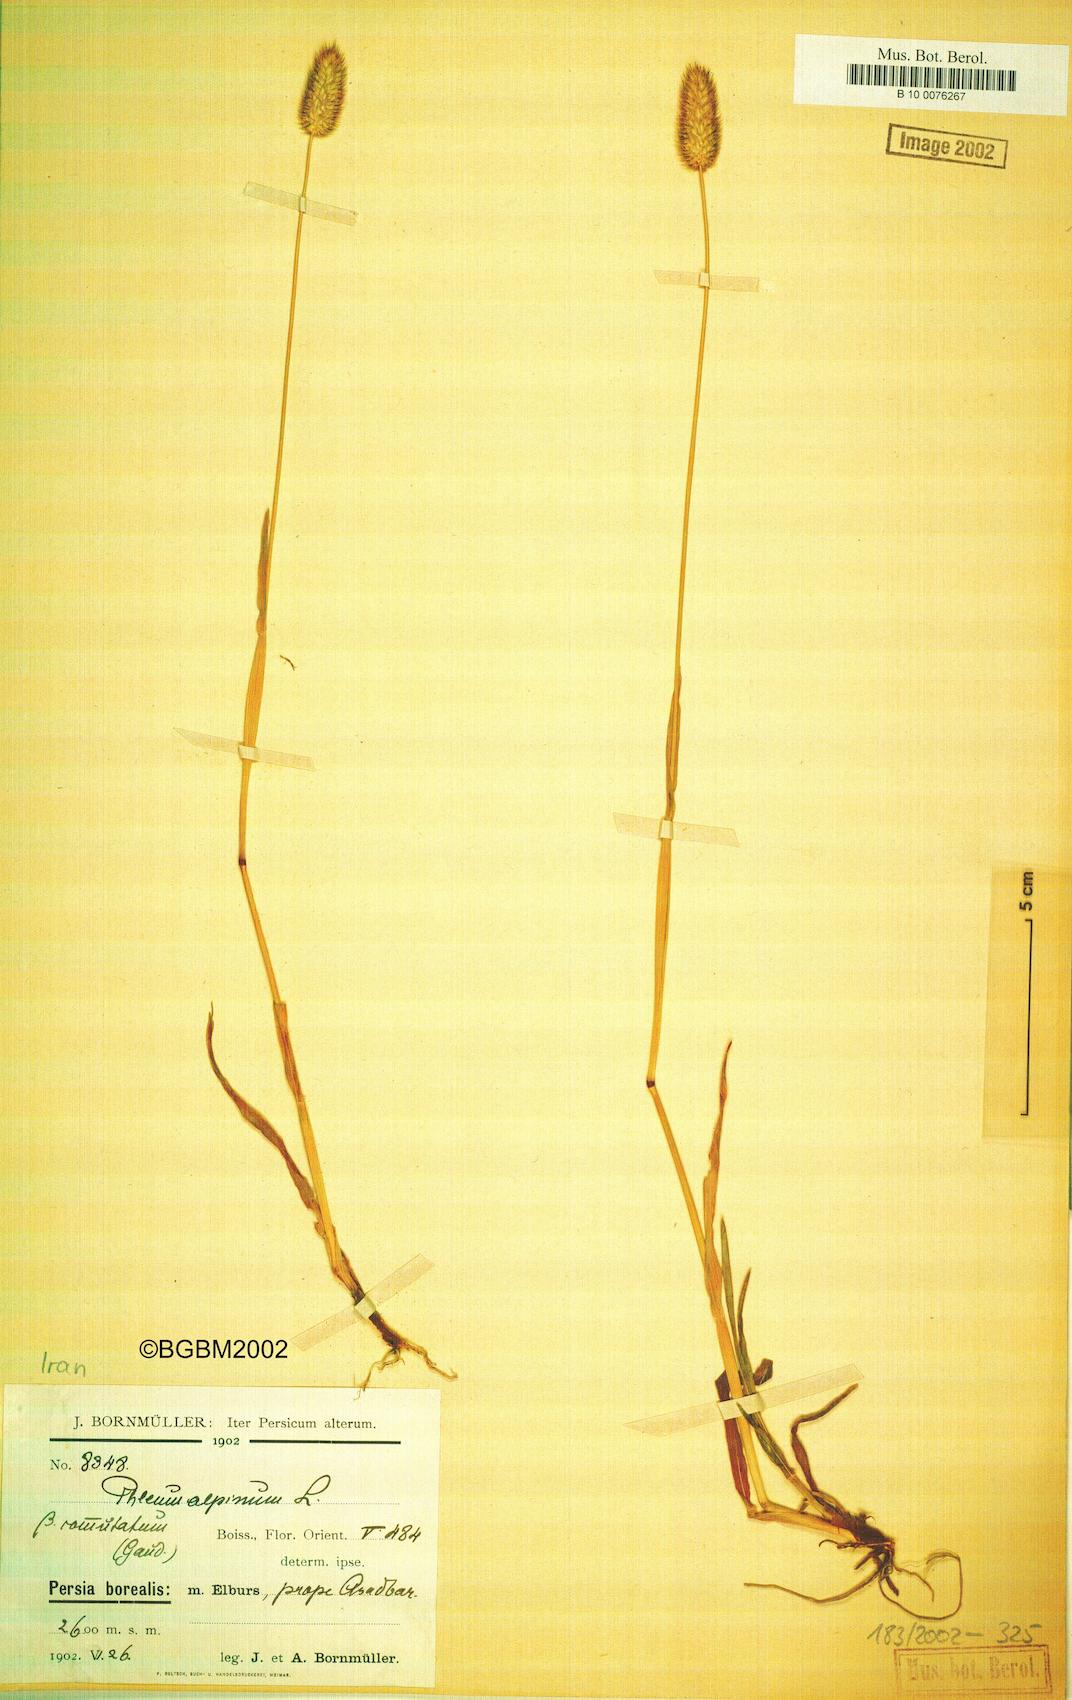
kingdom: Plantae
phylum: Tracheophyta
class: Liliopsida
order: Poales
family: Poaceae
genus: Phleum
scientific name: Phleum alpinum
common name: Alpine cat's-tail
